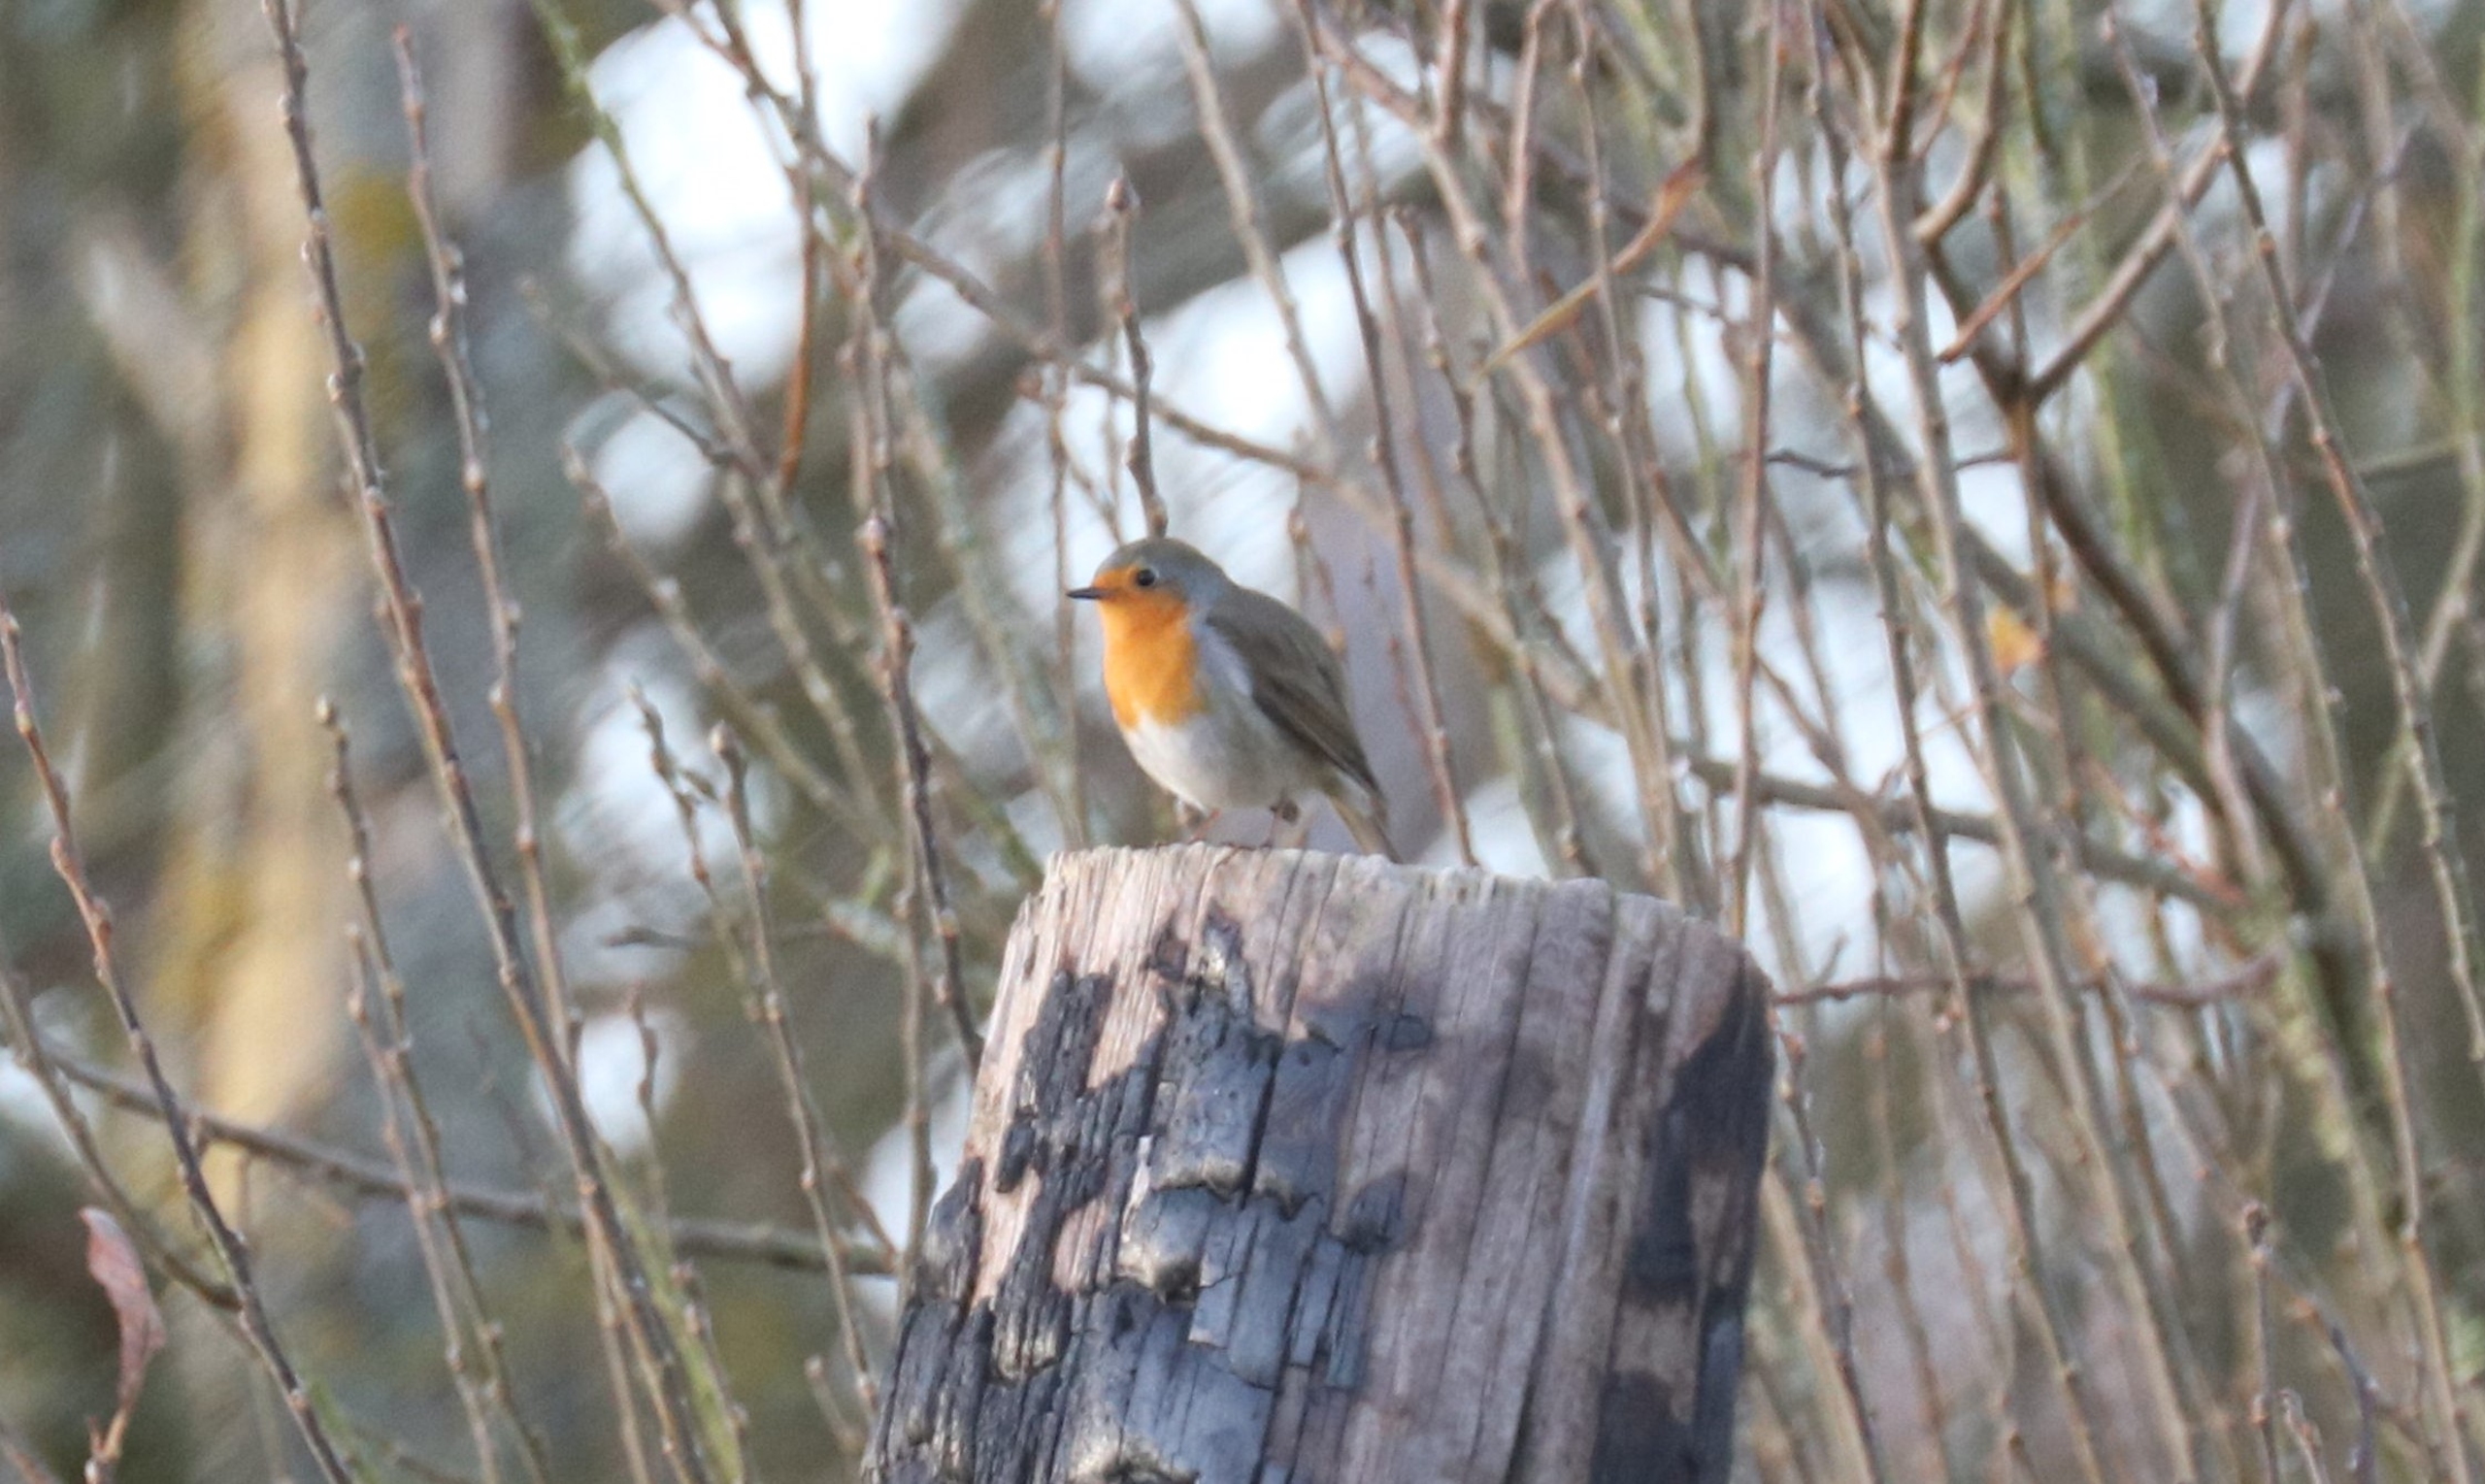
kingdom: Animalia
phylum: Chordata
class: Aves
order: Passeriformes
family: Muscicapidae
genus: Erithacus
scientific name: Erithacus rubecula
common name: Rødhals/rødkælk
